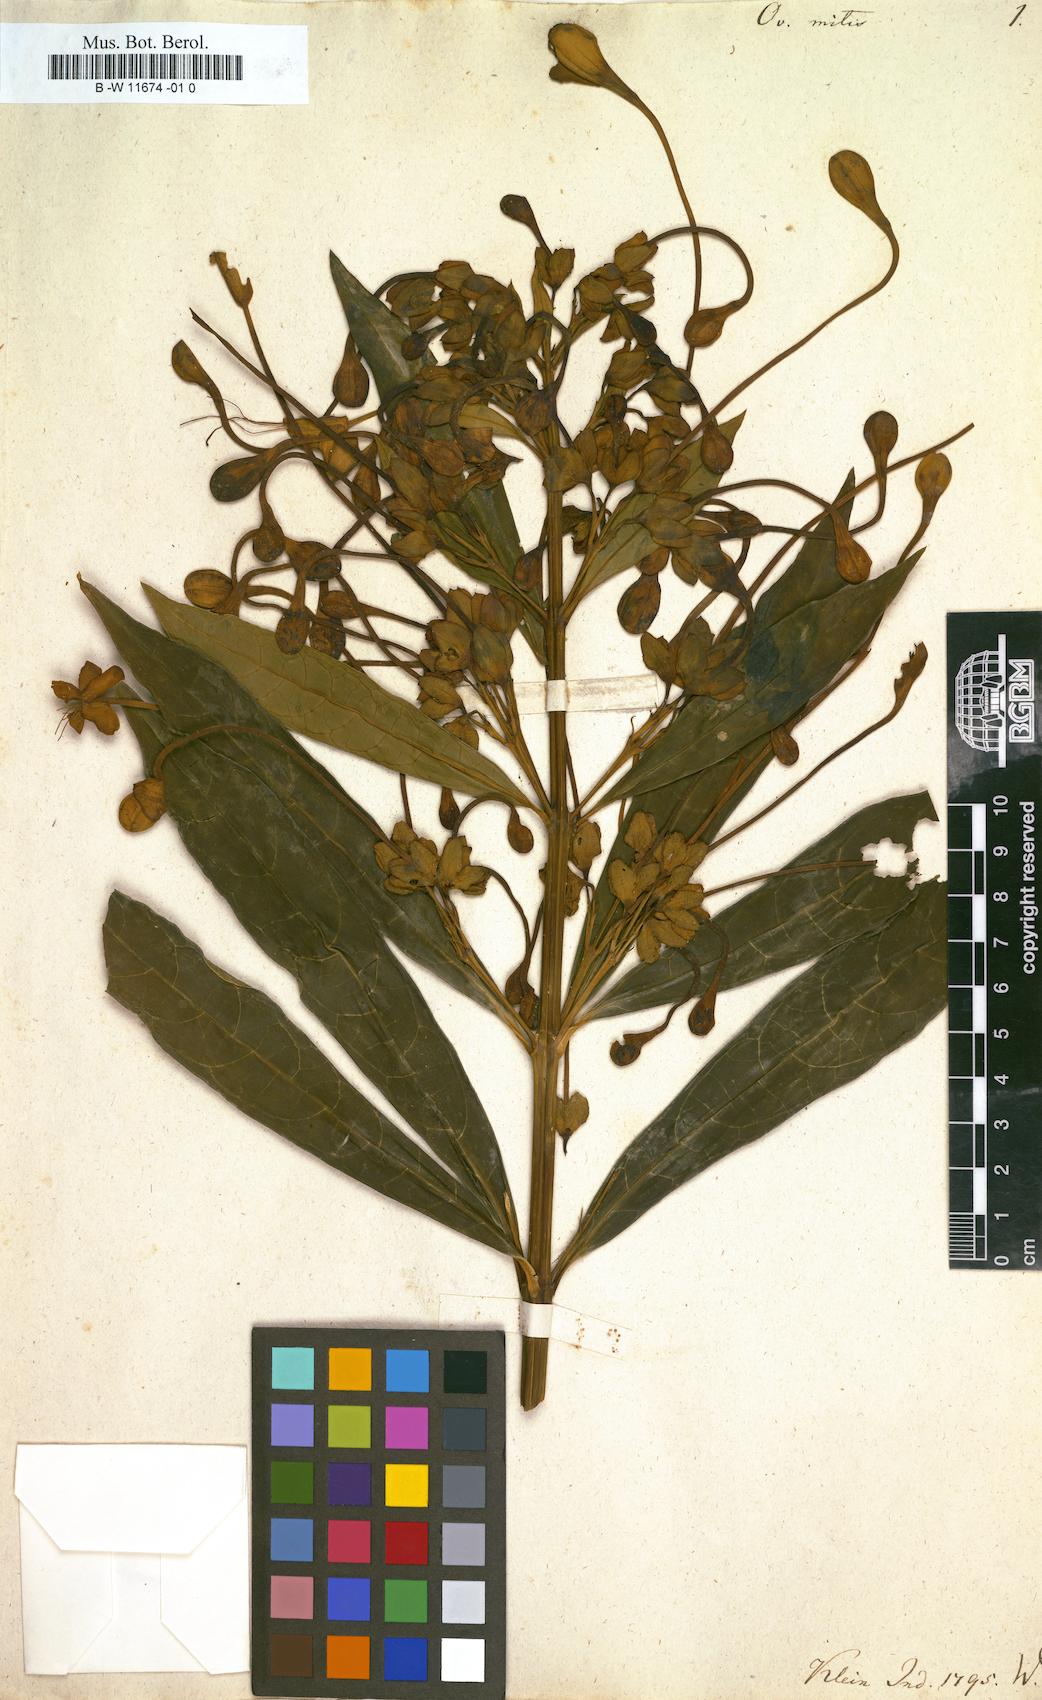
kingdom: Plantae
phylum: Tracheophyta
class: Magnoliopsida
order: Lamiales
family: Lamiaceae
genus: Clerodendrum
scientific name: Clerodendrum indicum
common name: Turk's turbin
